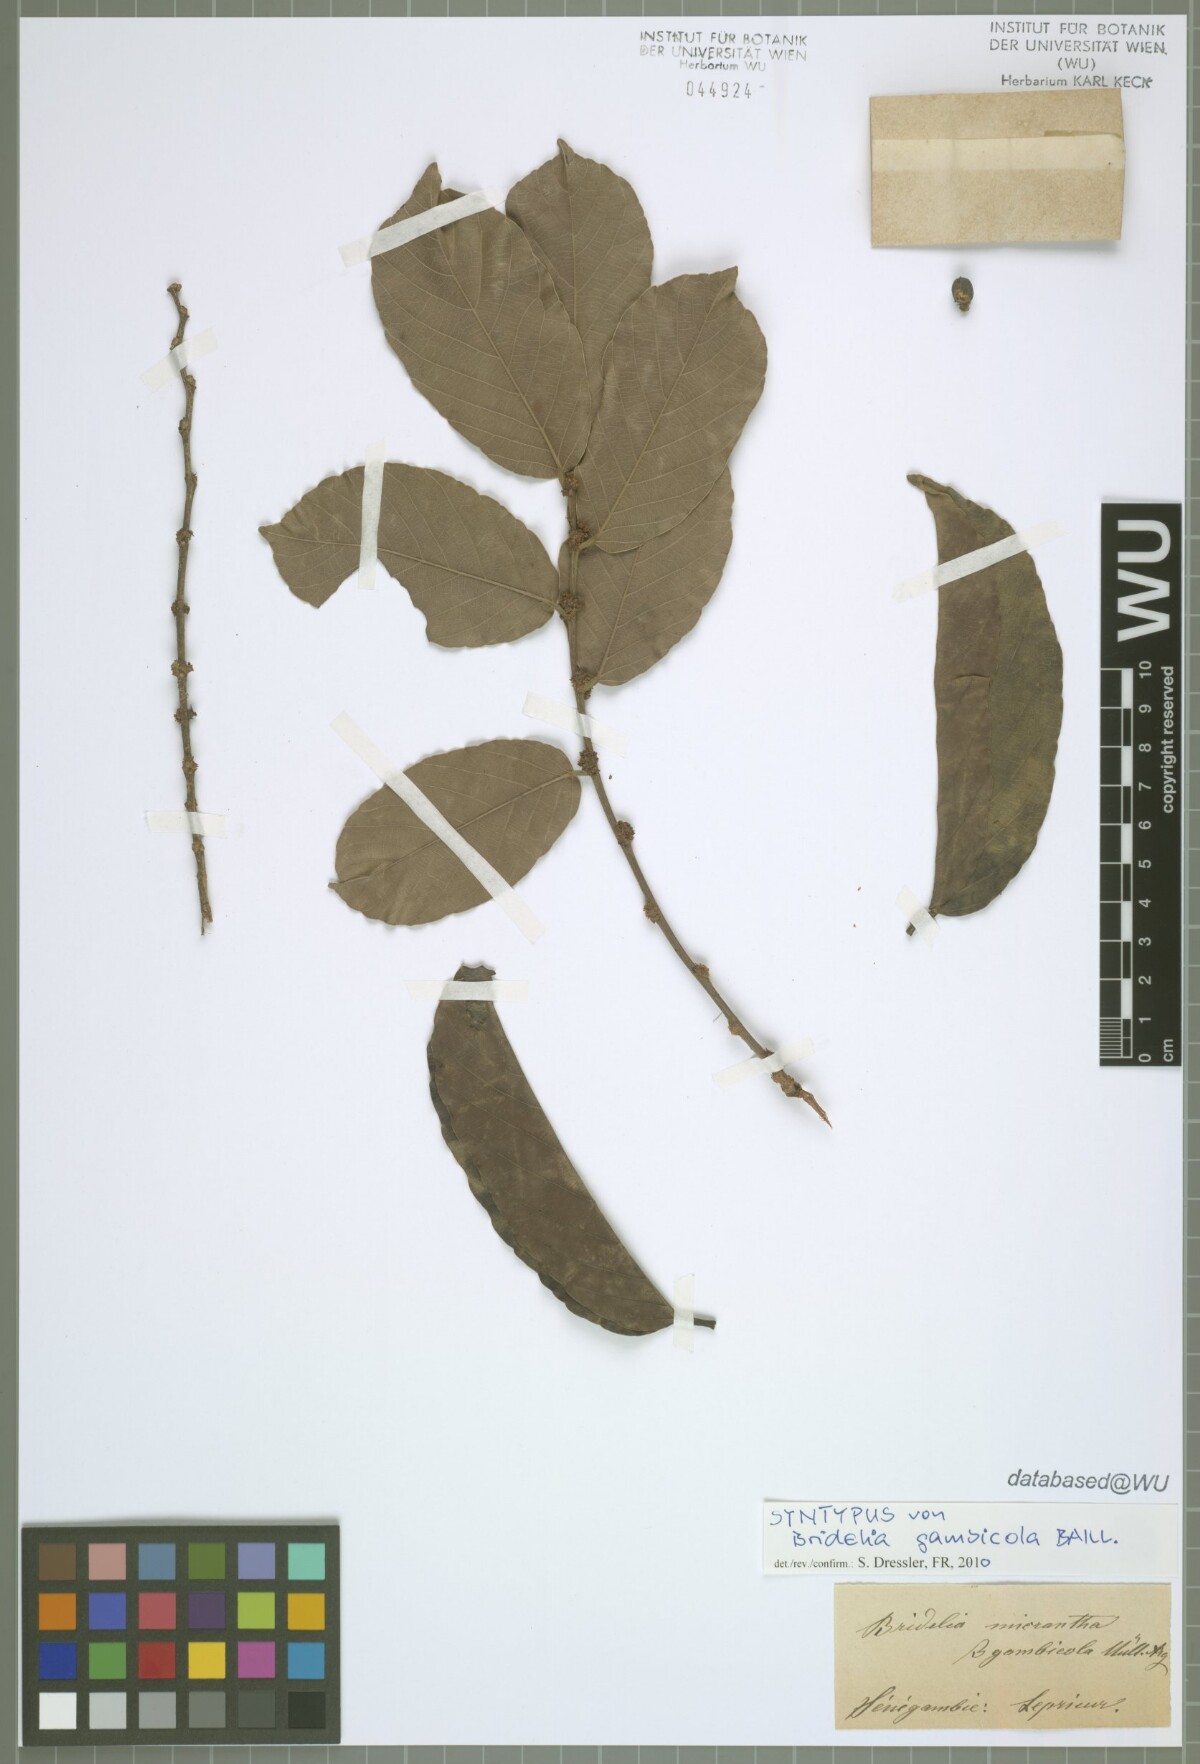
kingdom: Plantae
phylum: Tracheophyta
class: Magnoliopsida
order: Malpighiales
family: Euphorbiaceae
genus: Bridelia
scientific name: Bridelia gambecola
